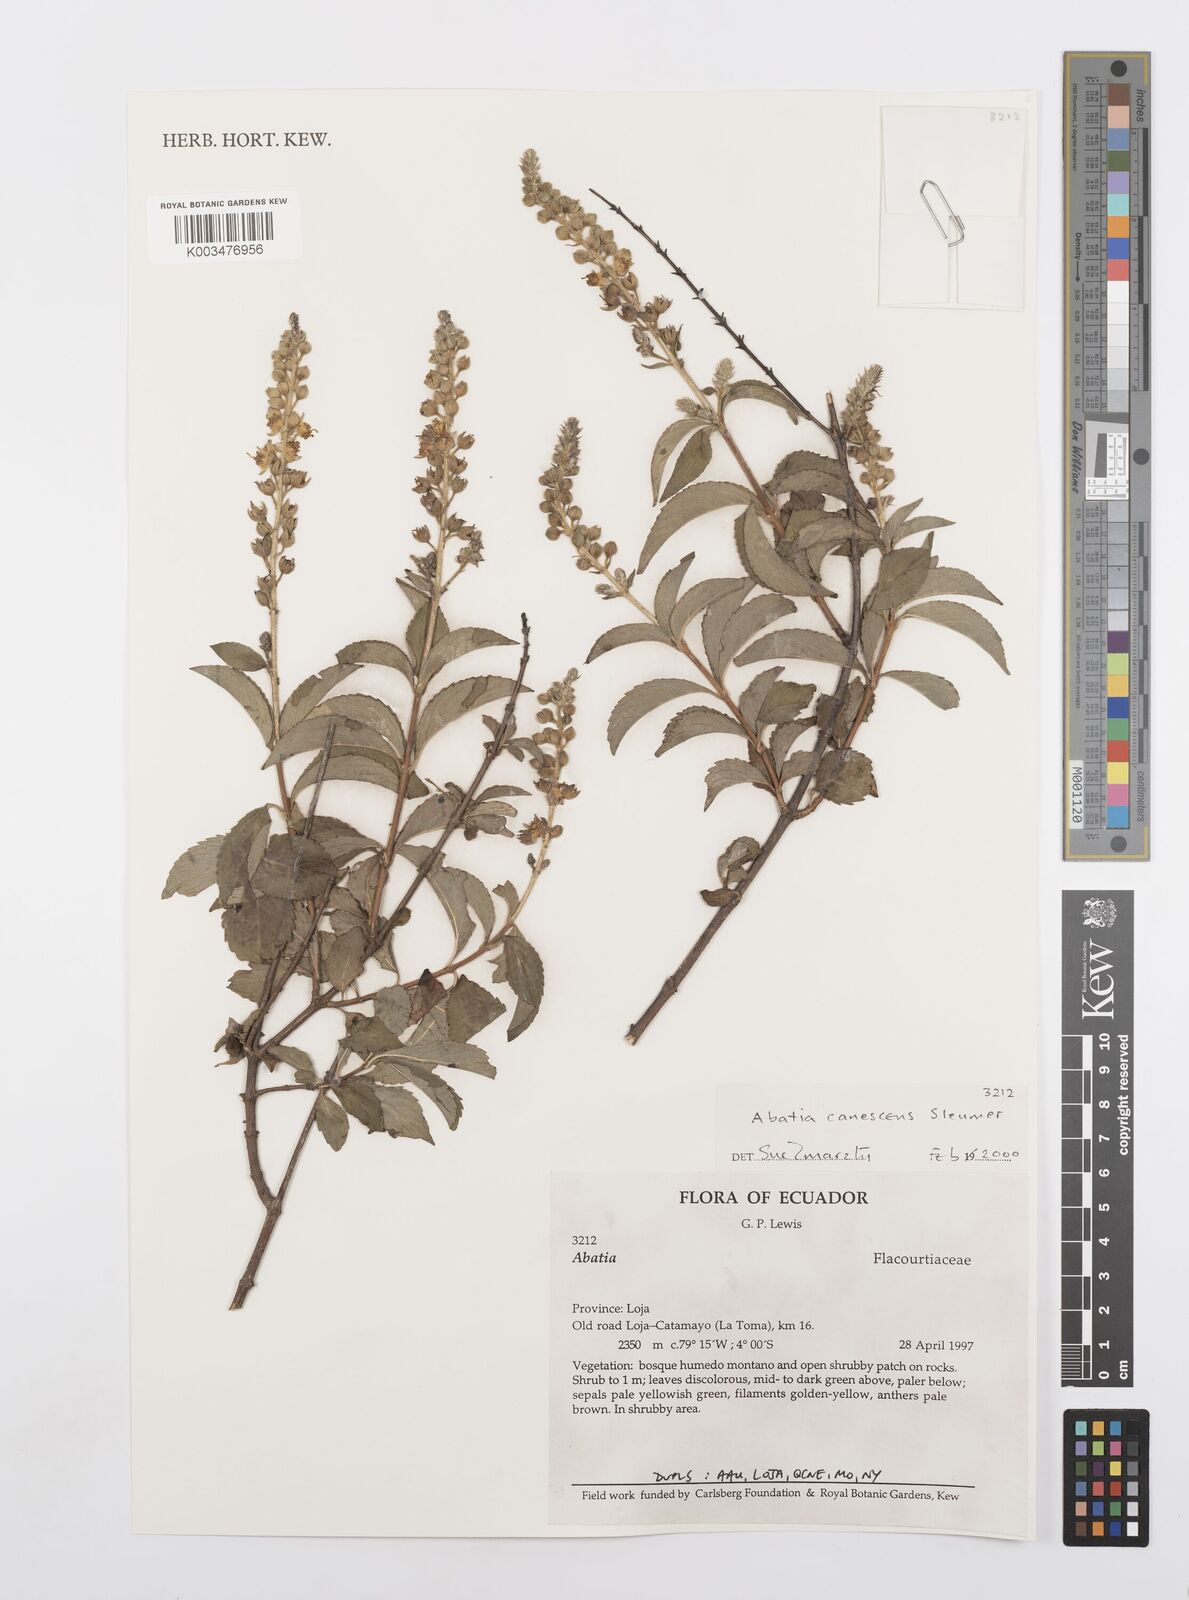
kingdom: Plantae
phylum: Tracheophyta
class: Magnoliopsida
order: Malpighiales
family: Salicaceae
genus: Abatia
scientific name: Abatia canescens
